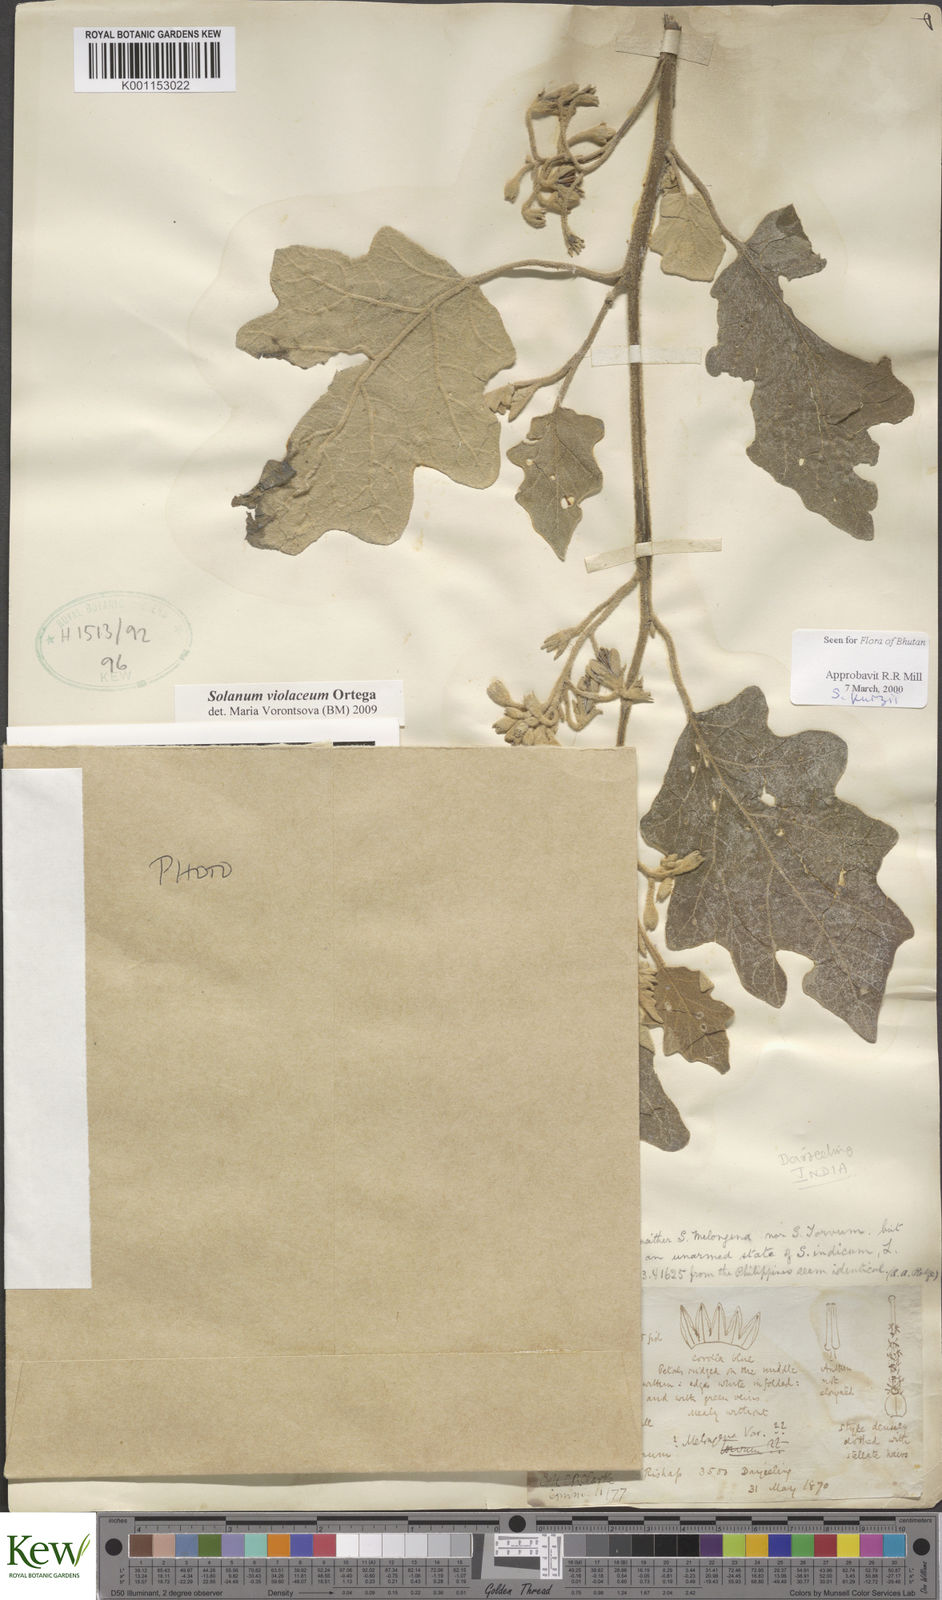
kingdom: Plantae
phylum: Tracheophyta
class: Magnoliopsida
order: Solanales
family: Solanaceae
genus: Solanum
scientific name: Solanum violaceum
